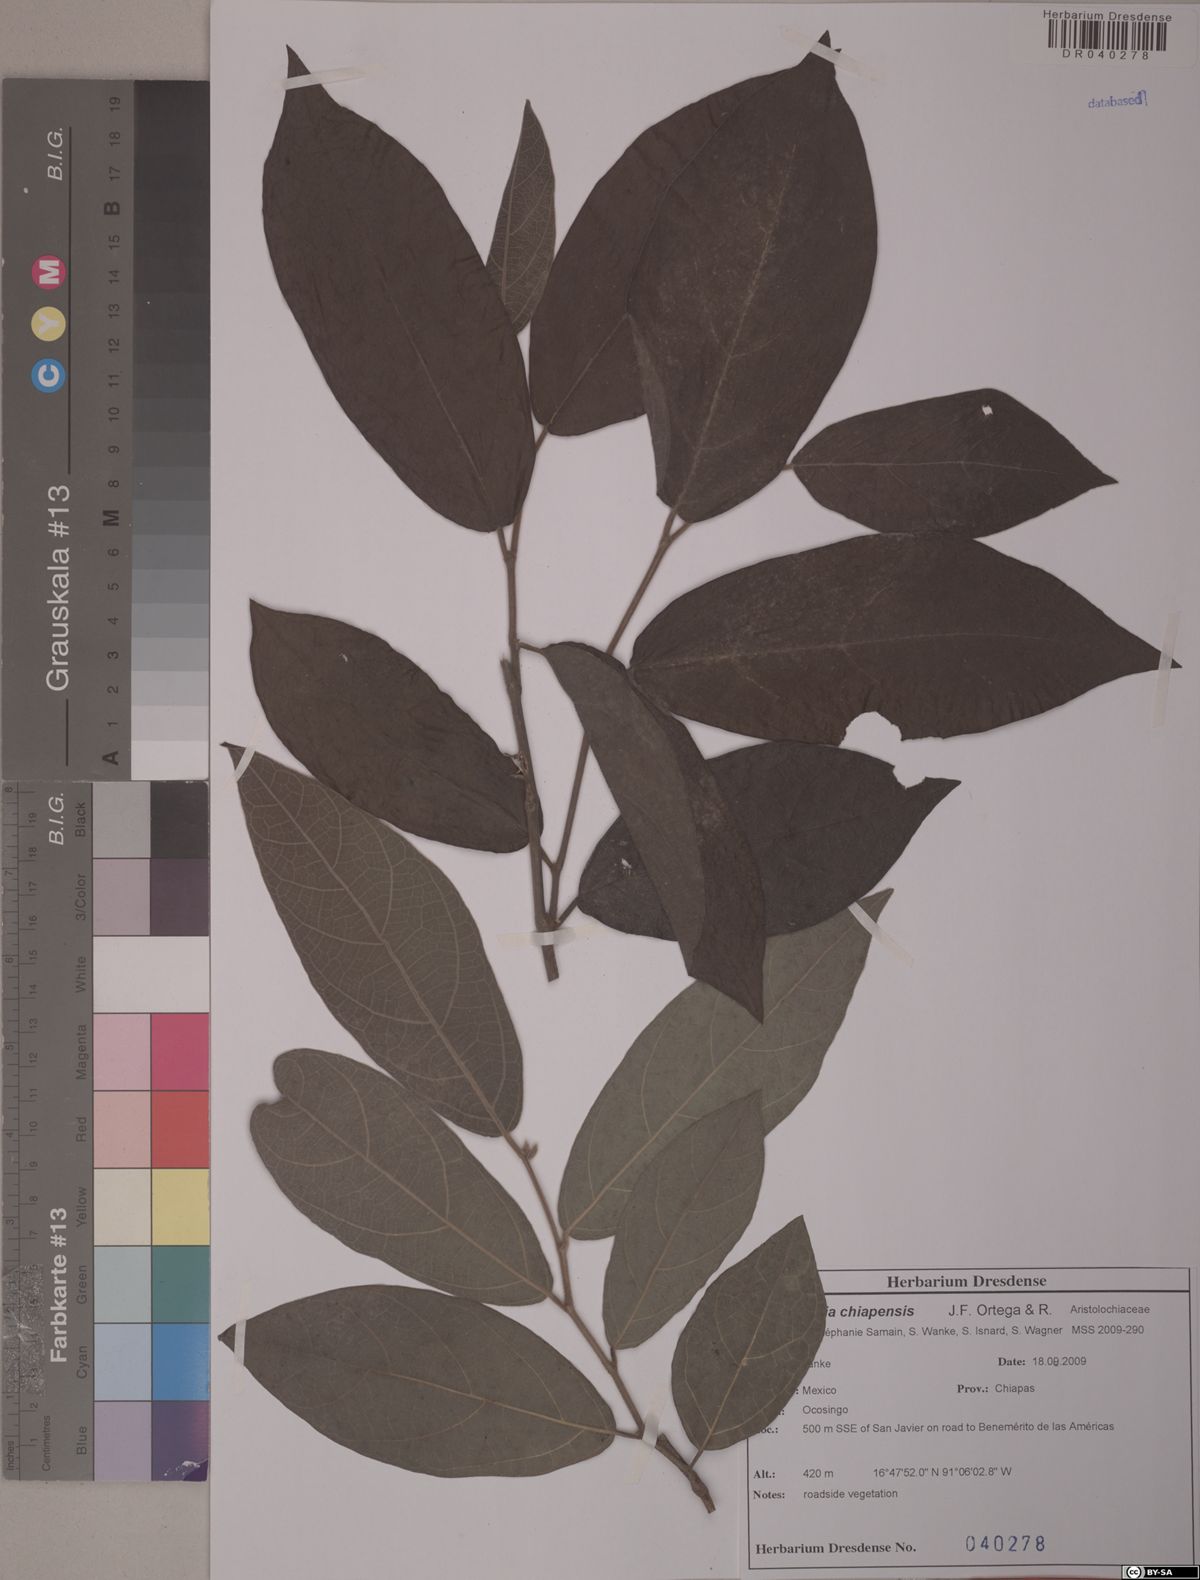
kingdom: Plantae
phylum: Tracheophyta
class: Magnoliopsida
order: Piperales
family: Aristolochiaceae
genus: Isotrema
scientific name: Isotrema paracletum
